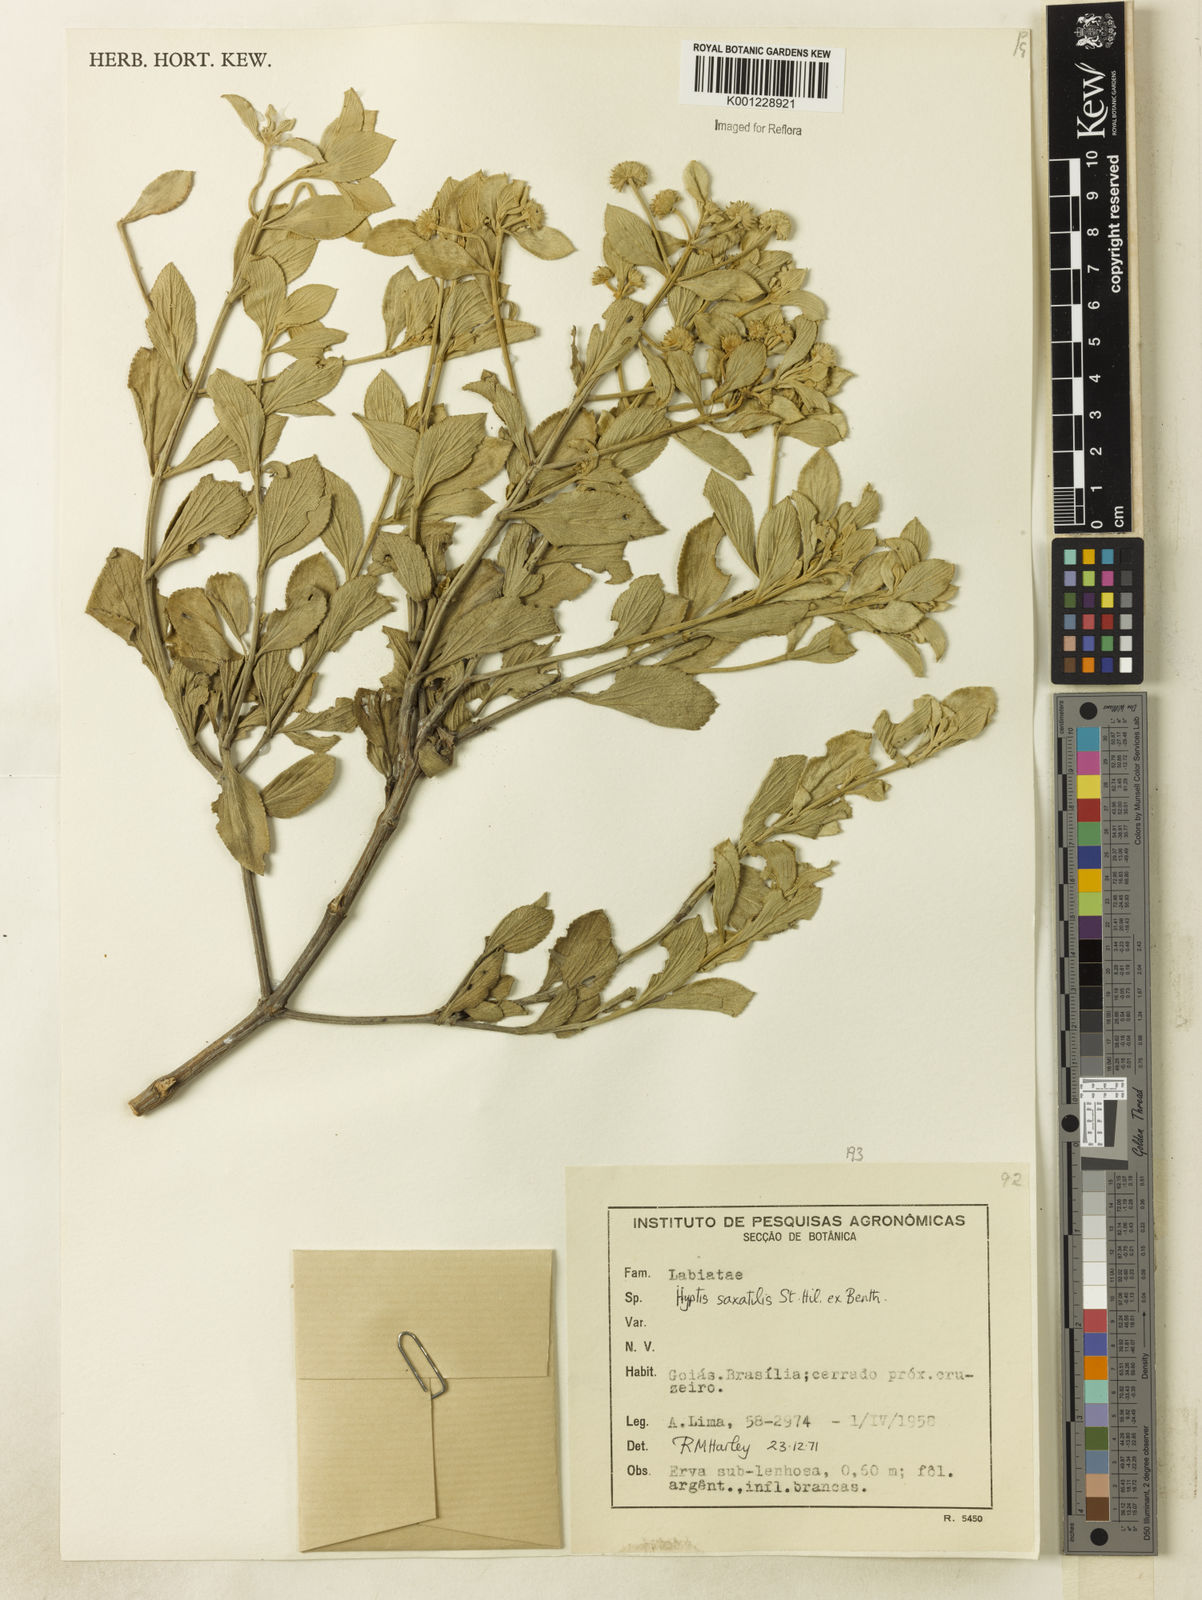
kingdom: Plantae
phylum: Tracheophyta
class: Magnoliopsida
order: Lamiales
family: Lamiaceae
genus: Hyptis
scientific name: Hyptis saxatilis
